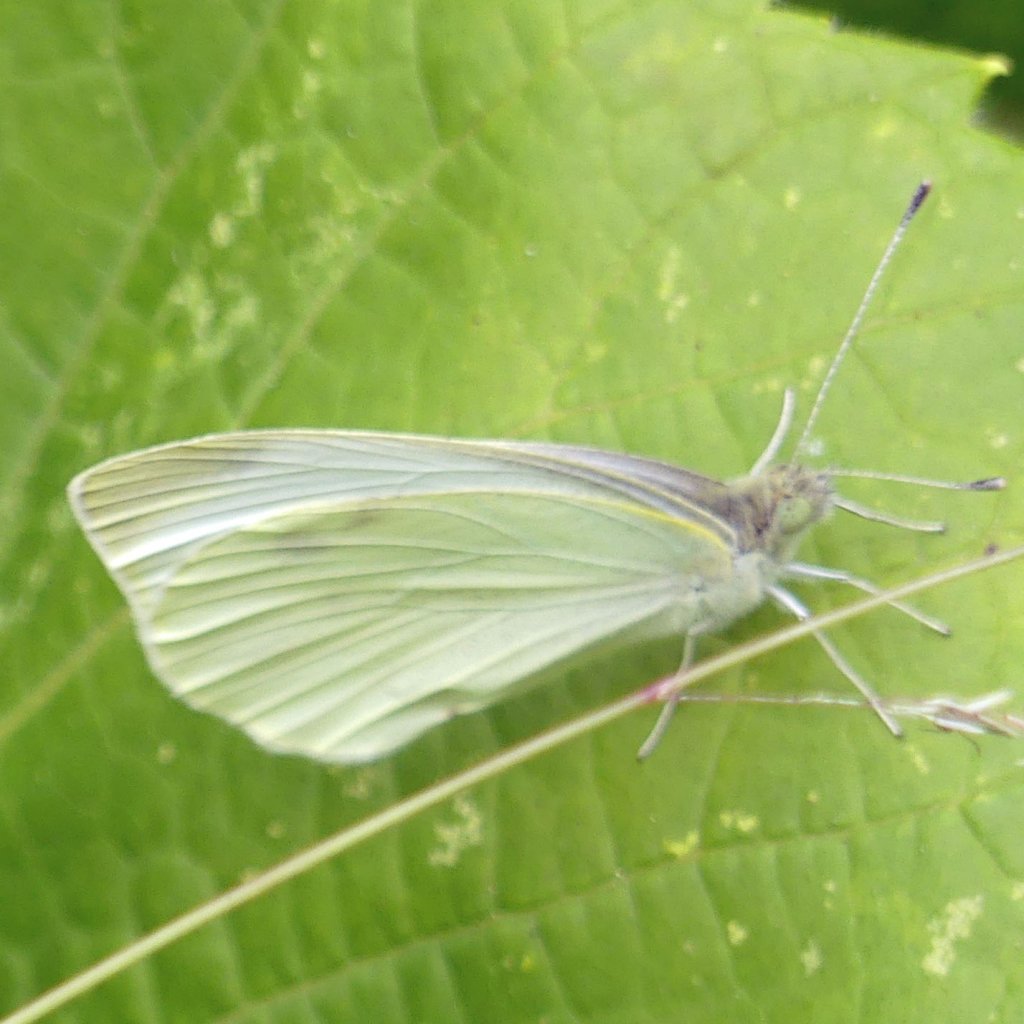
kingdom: Animalia
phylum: Arthropoda
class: Insecta
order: Lepidoptera
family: Pieridae
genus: Pieris
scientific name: Pieris rapae
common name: Cabbage White
